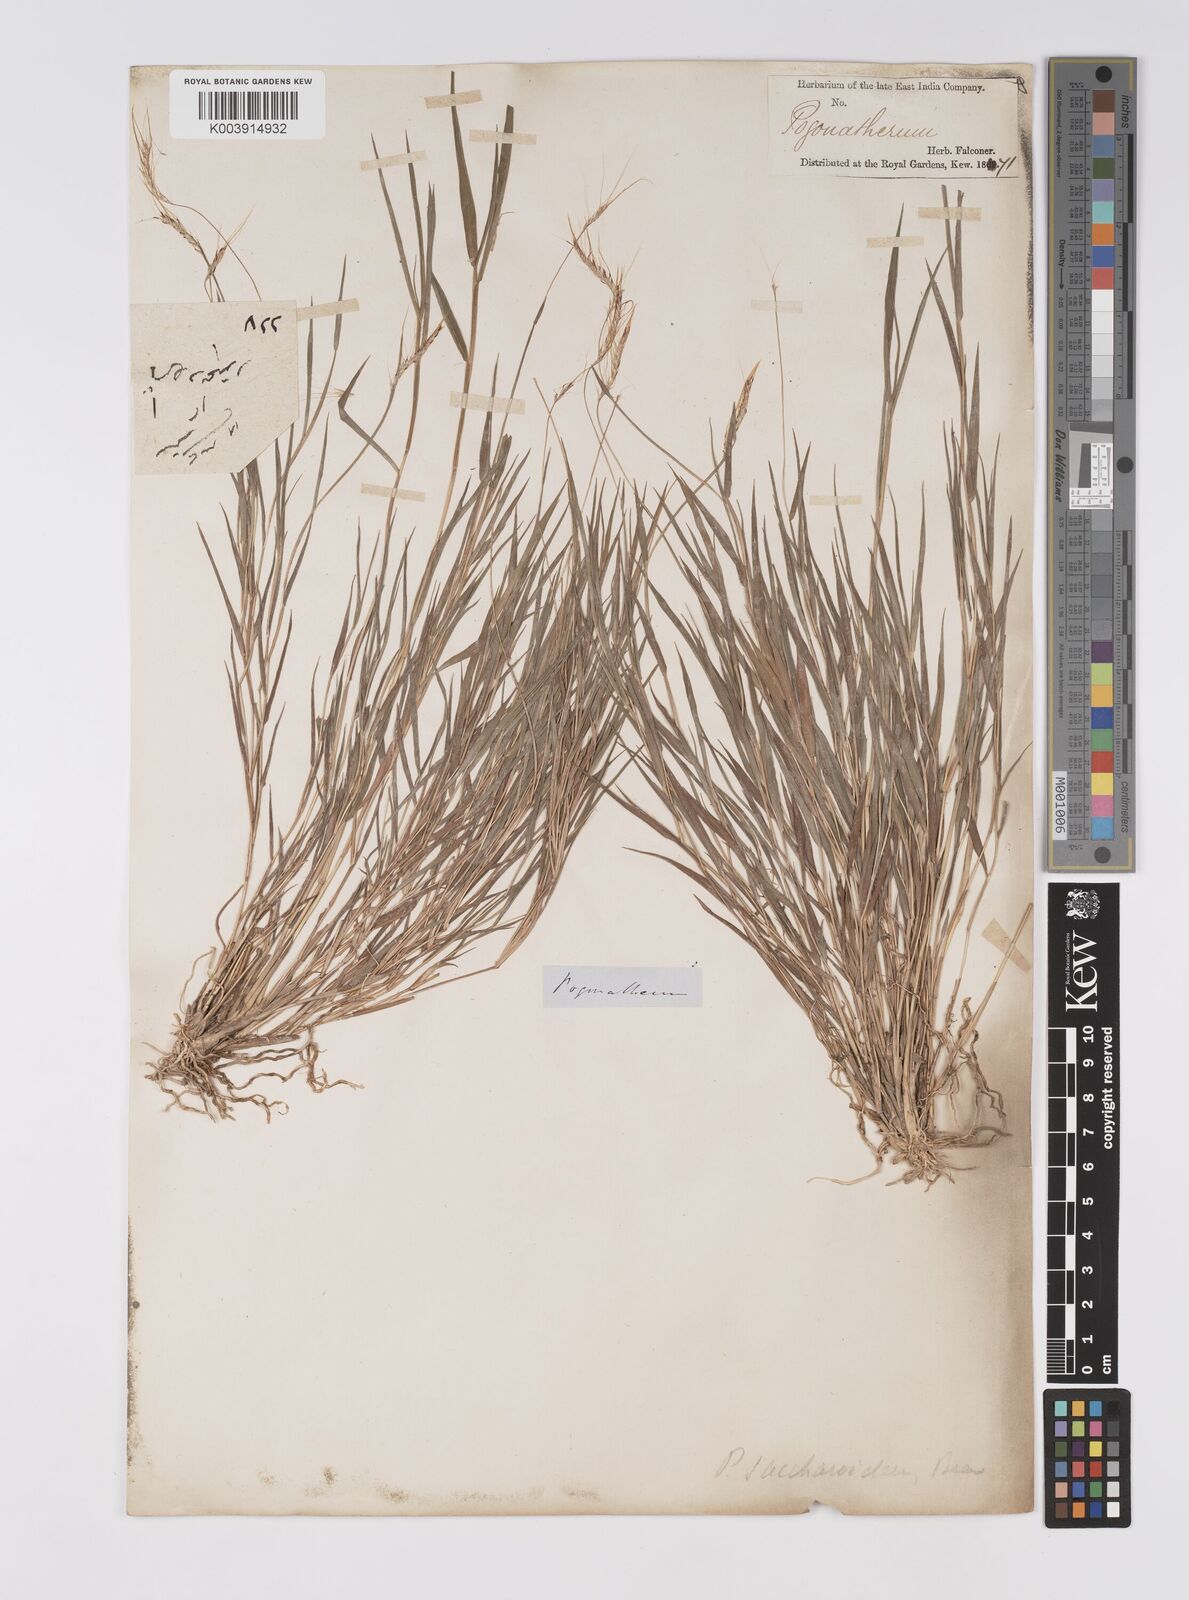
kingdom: Plantae
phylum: Tracheophyta
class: Liliopsida
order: Poales
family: Poaceae
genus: Pogonatherum
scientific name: Pogonatherum paniceum
